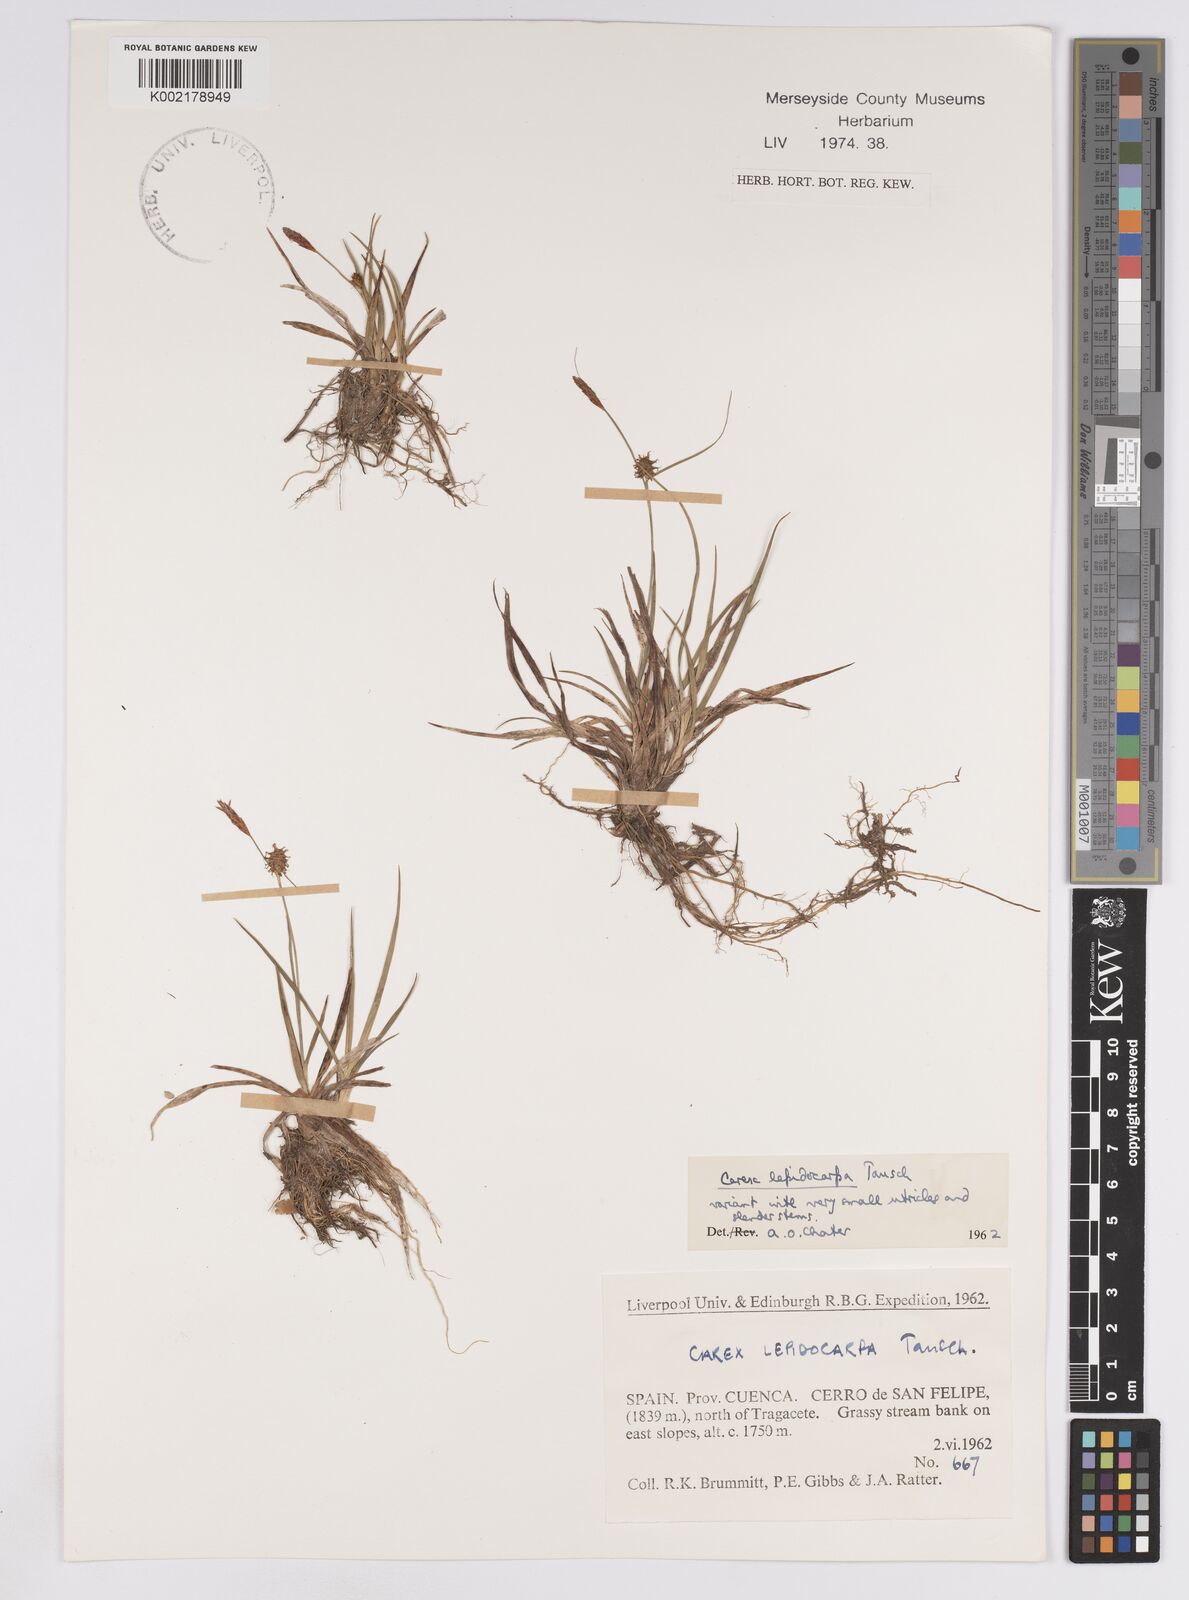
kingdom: Plantae
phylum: Tracheophyta
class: Liliopsida
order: Poales
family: Cyperaceae
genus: Carex
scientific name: Carex lepidocarpa
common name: Long-stalked yellow-sedge
